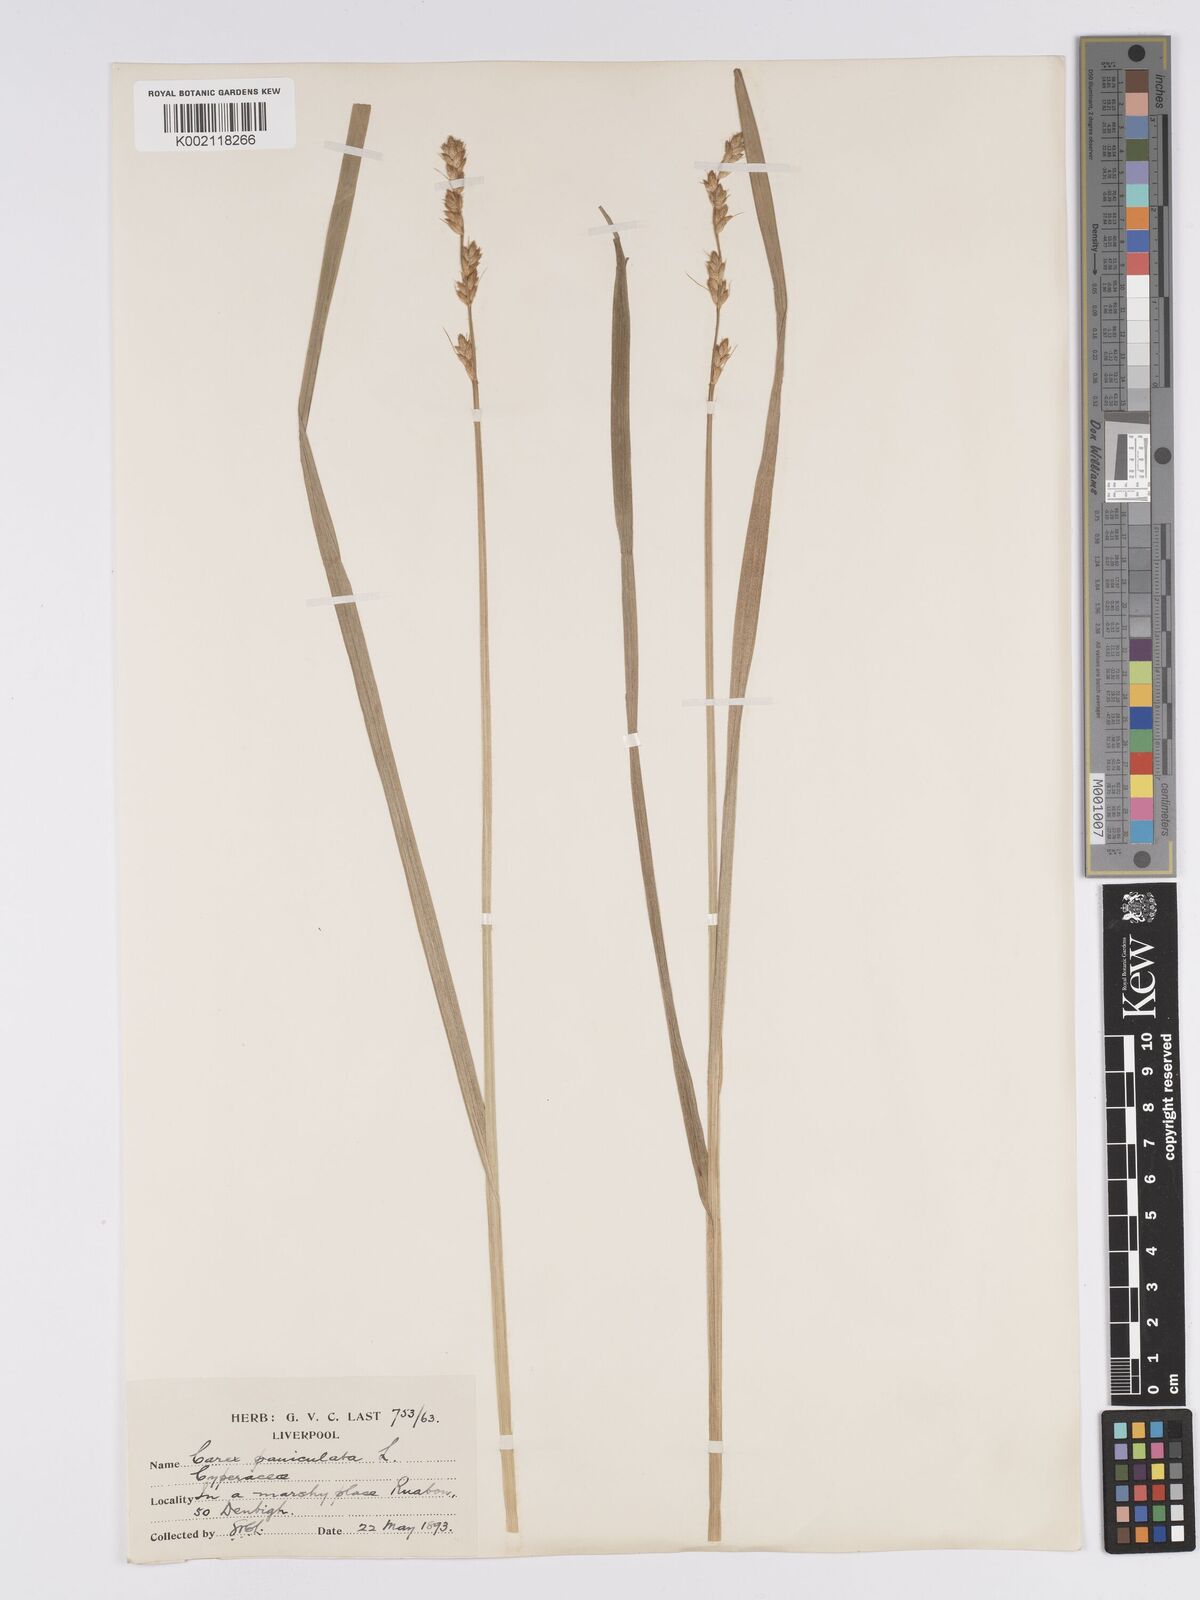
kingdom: Plantae
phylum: Tracheophyta
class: Liliopsida
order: Poales
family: Cyperaceae
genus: Carex
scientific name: Carex paniculata
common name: Greater tussock-sedge
